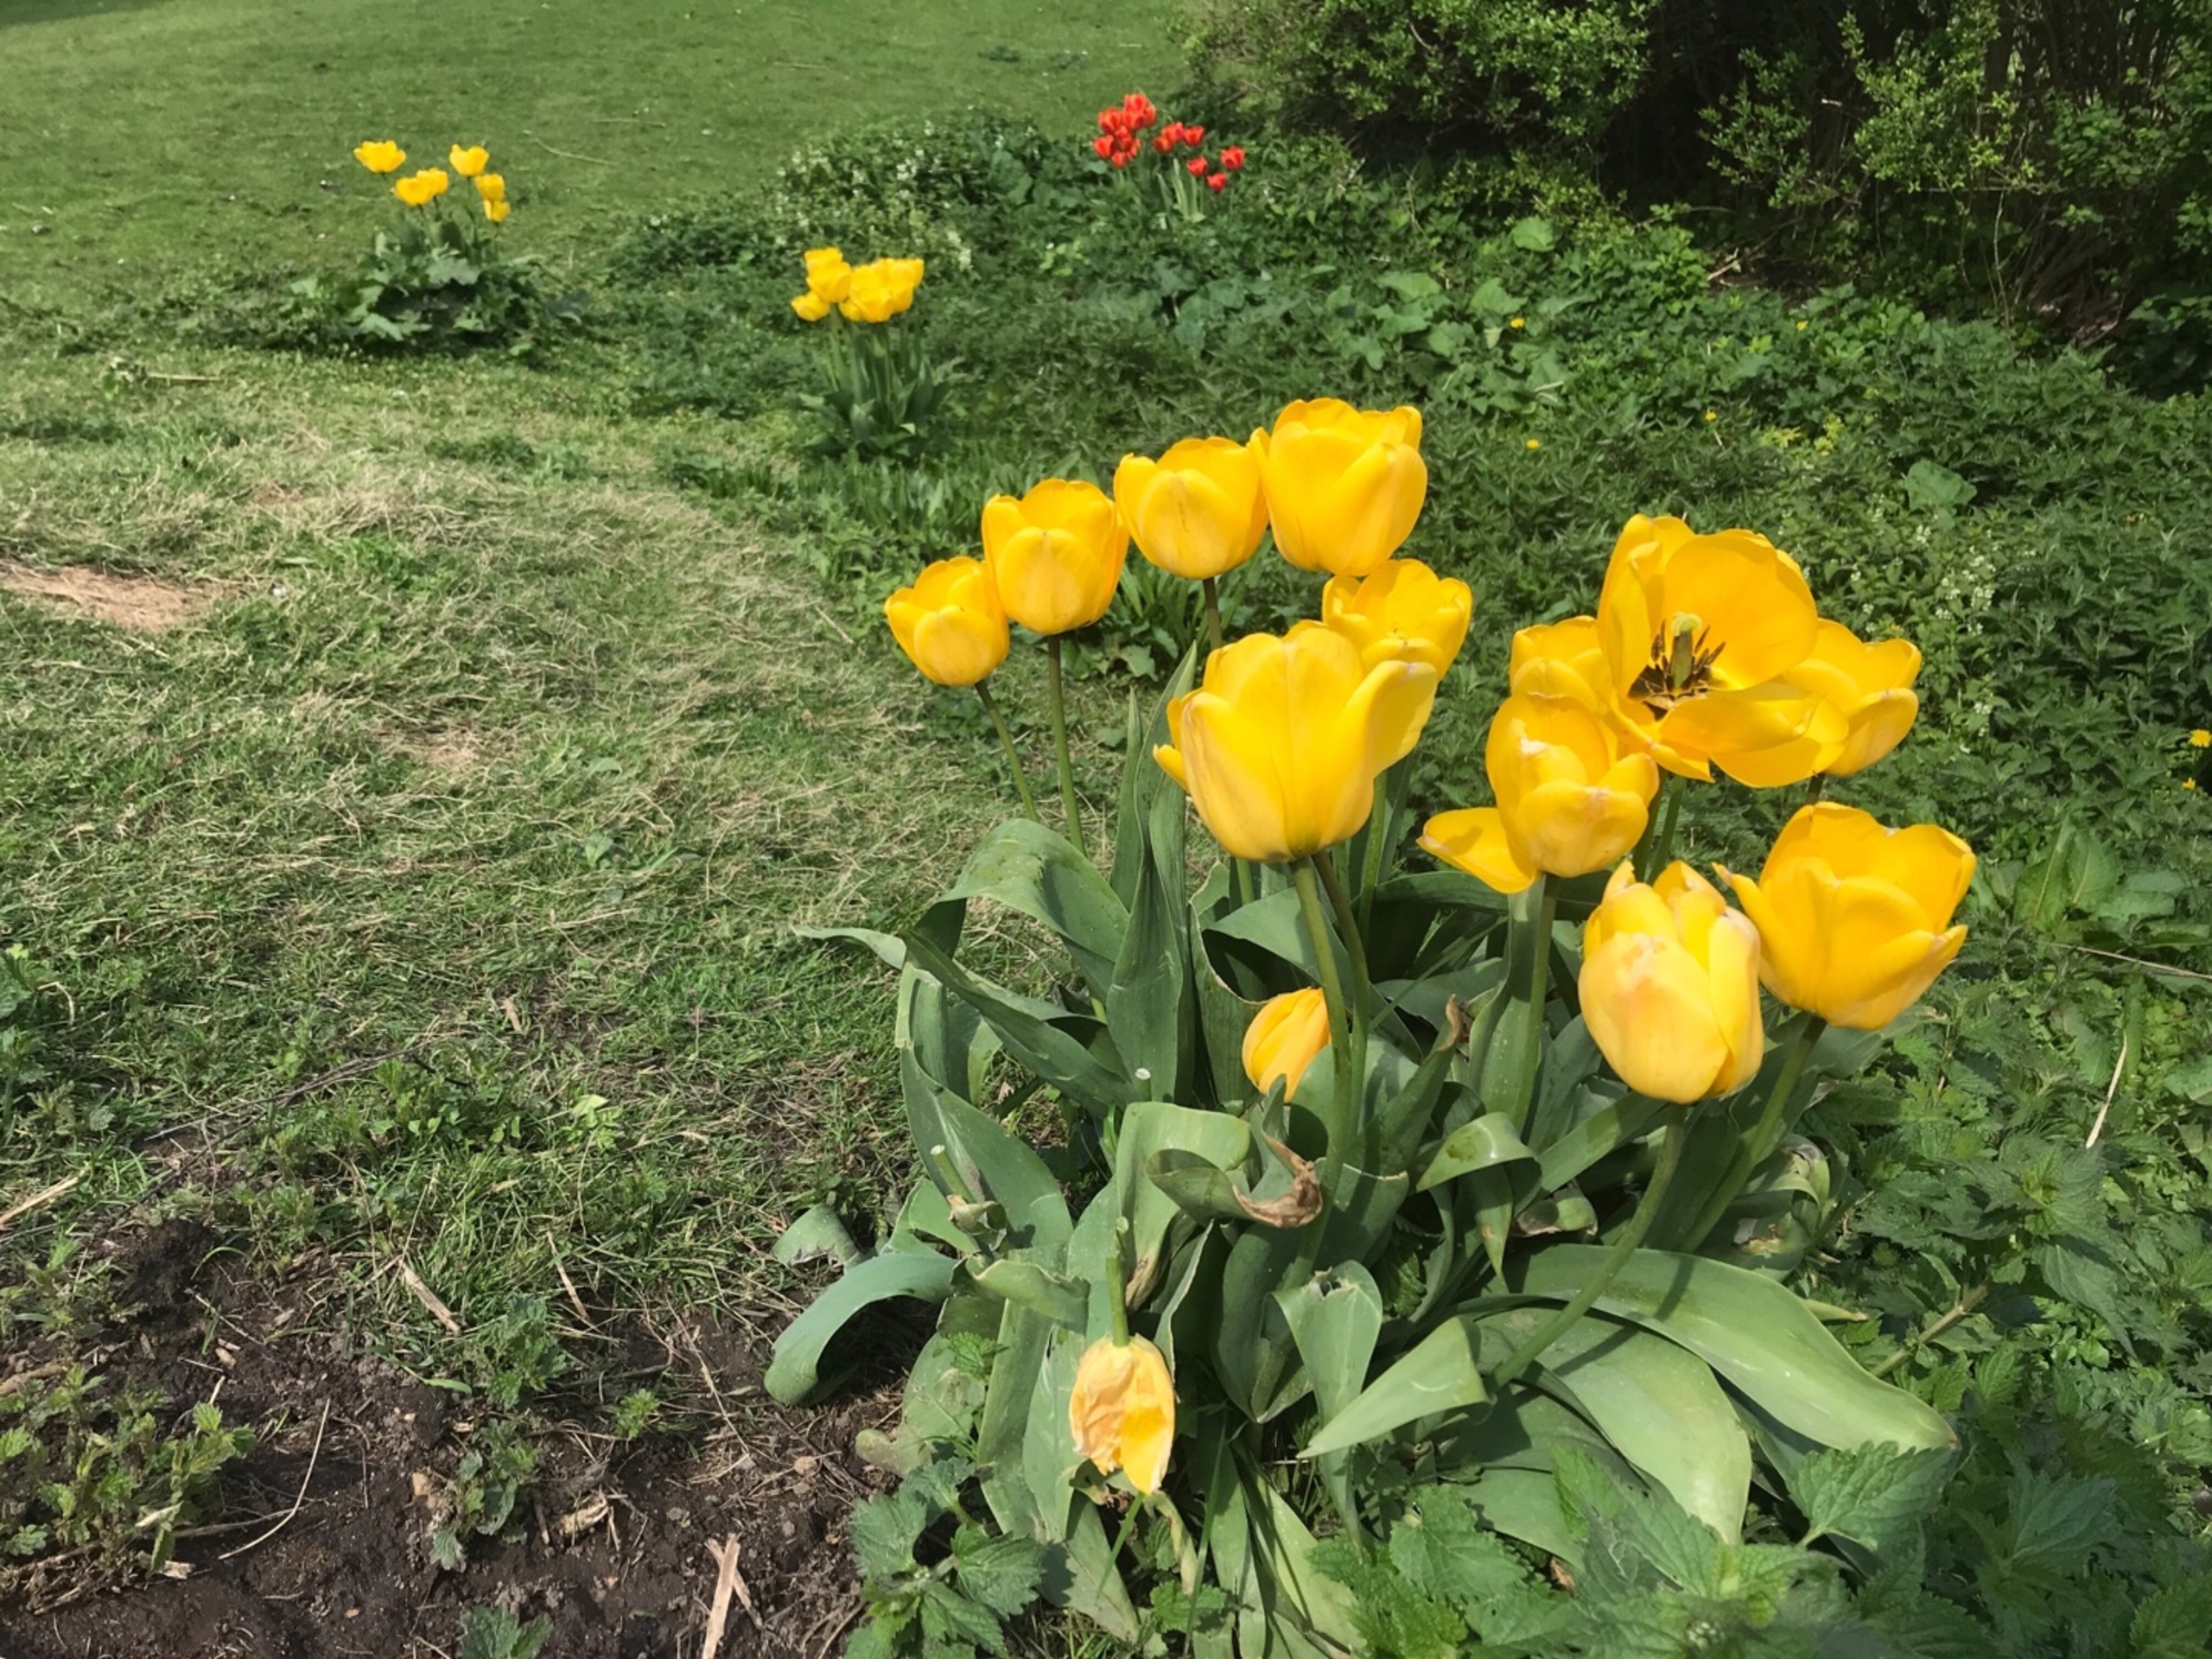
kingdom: Plantae
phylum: Tracheophyta
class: Liliopsida
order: Liliales
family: Liliaceae
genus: Tulipa
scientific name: Tulipa gesneriana
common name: Have-tulipan
